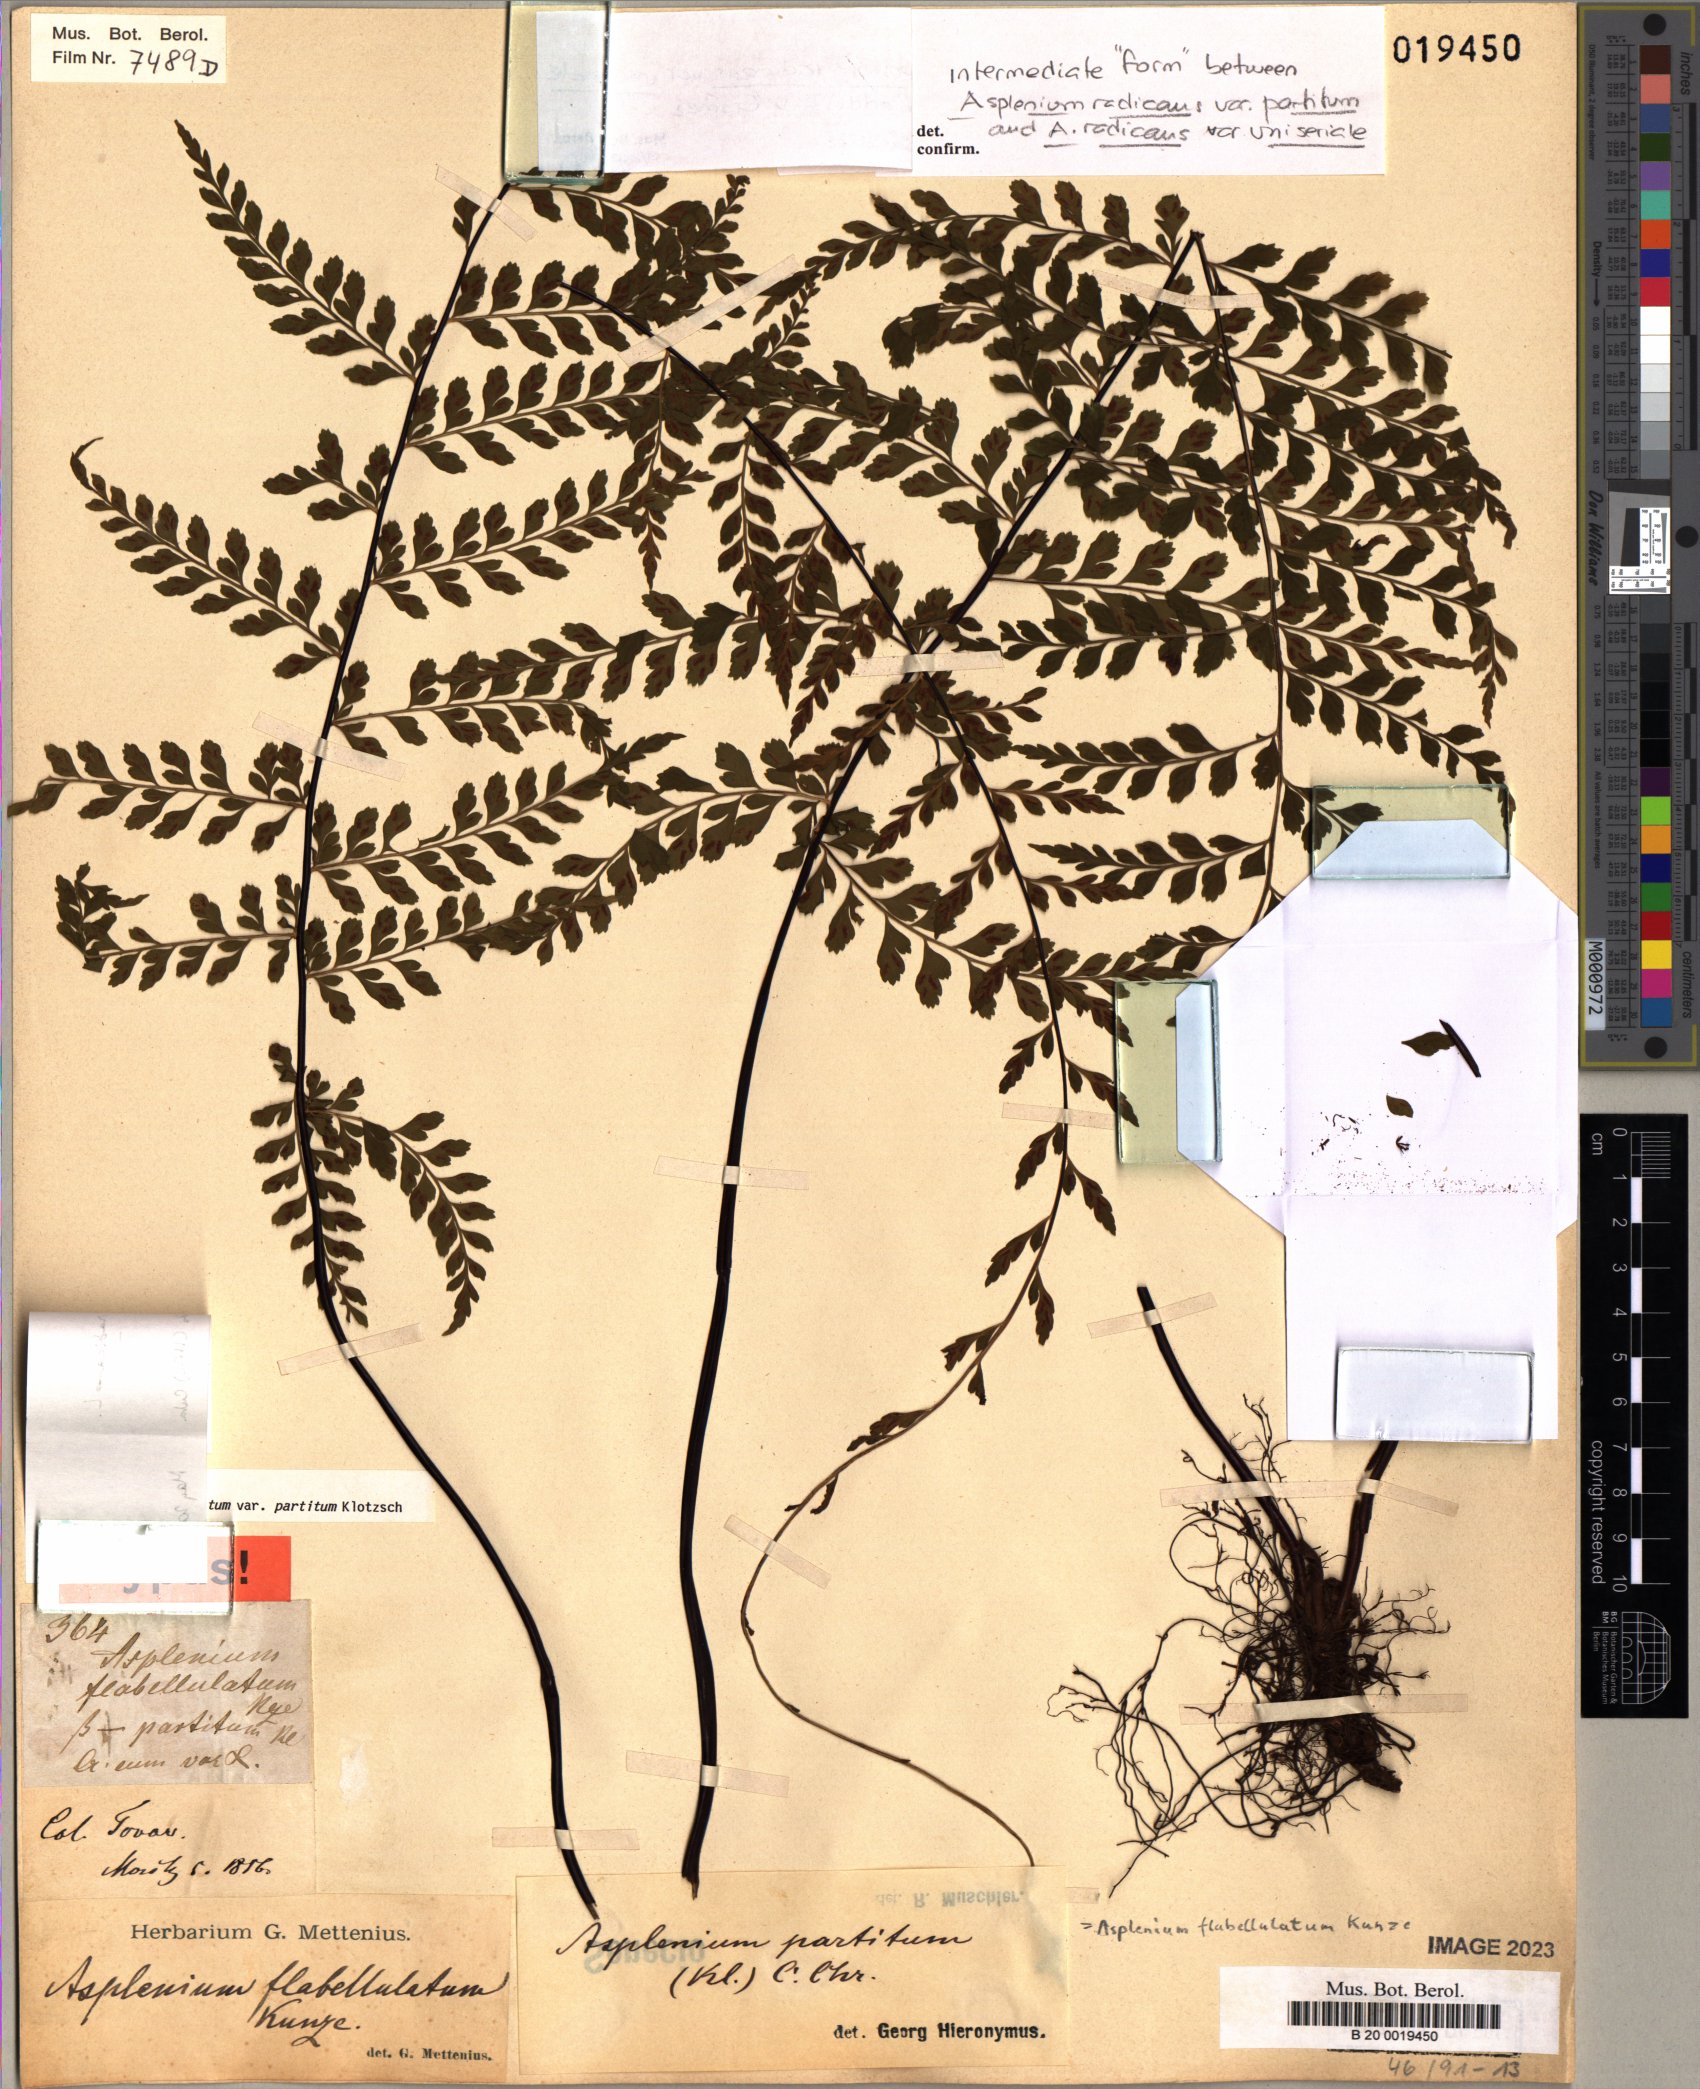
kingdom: Plantae
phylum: Tracheophyta
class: Polypodiopsida
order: Polypodiales
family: Aspleniaceae
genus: Asplenium
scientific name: Asplenium flabellulatum
